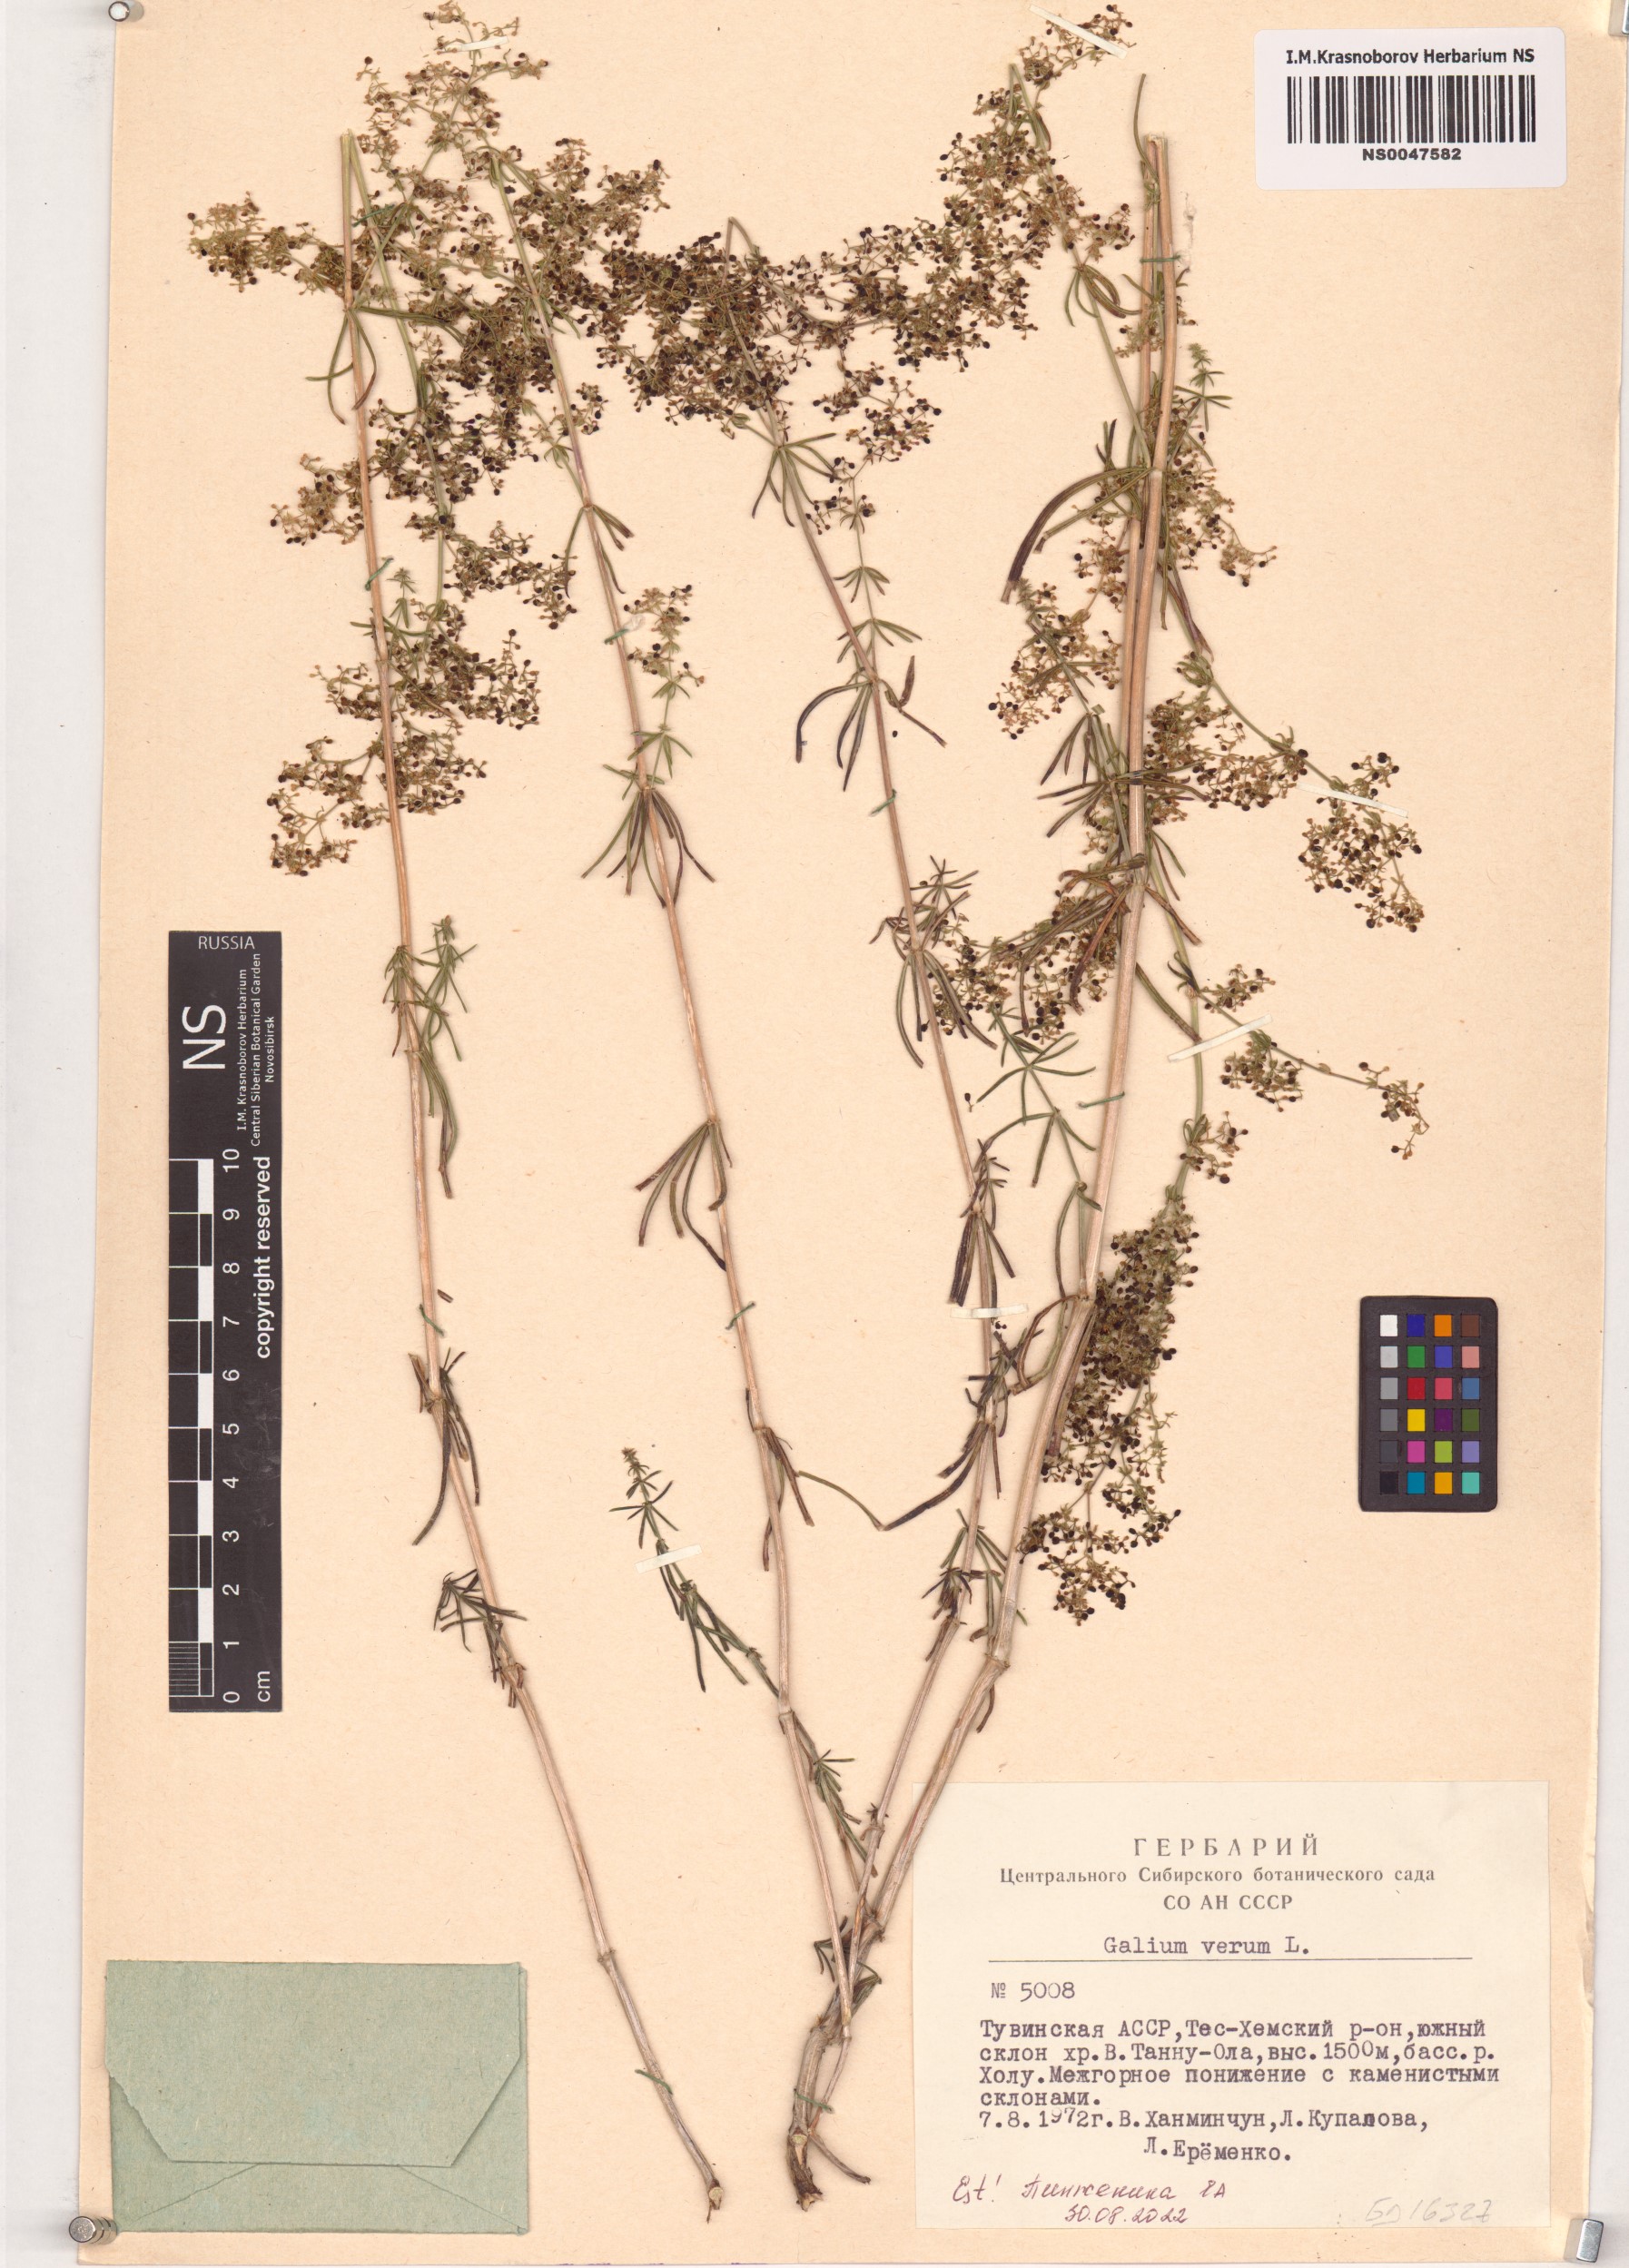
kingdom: Plantae
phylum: Tracheophyta
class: Magnoliopsida
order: Gentianales
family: Rubiaceae
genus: Galium
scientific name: Galium verum
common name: Lady's bedstraw
